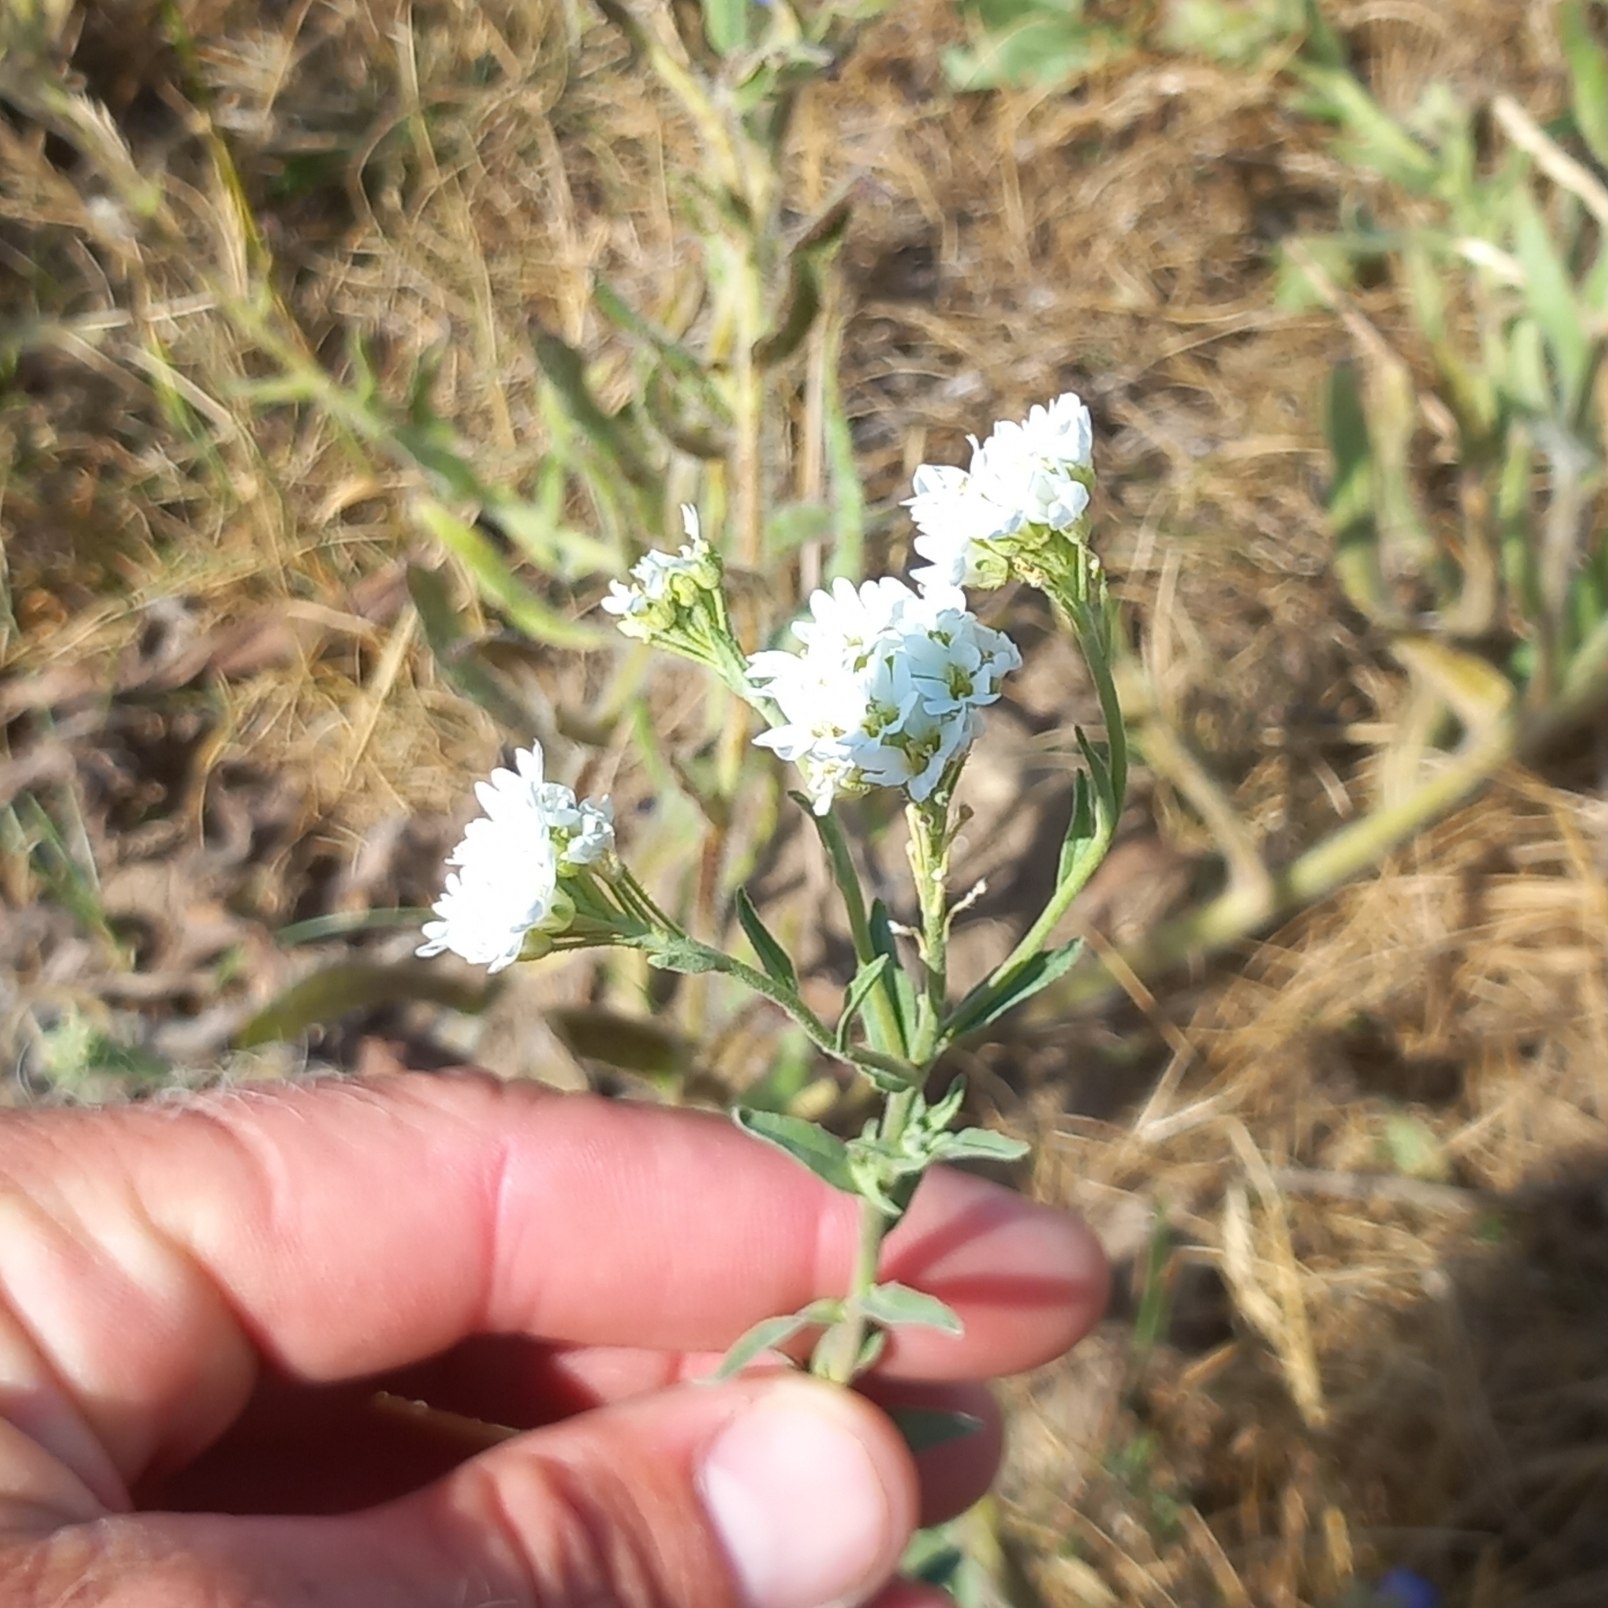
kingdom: Plantae
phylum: Tracheophyta
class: Magnoliopsida
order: Brassicales
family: Brassicaceae
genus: Berteroa
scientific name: Berteroa incana
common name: Kløvplade
